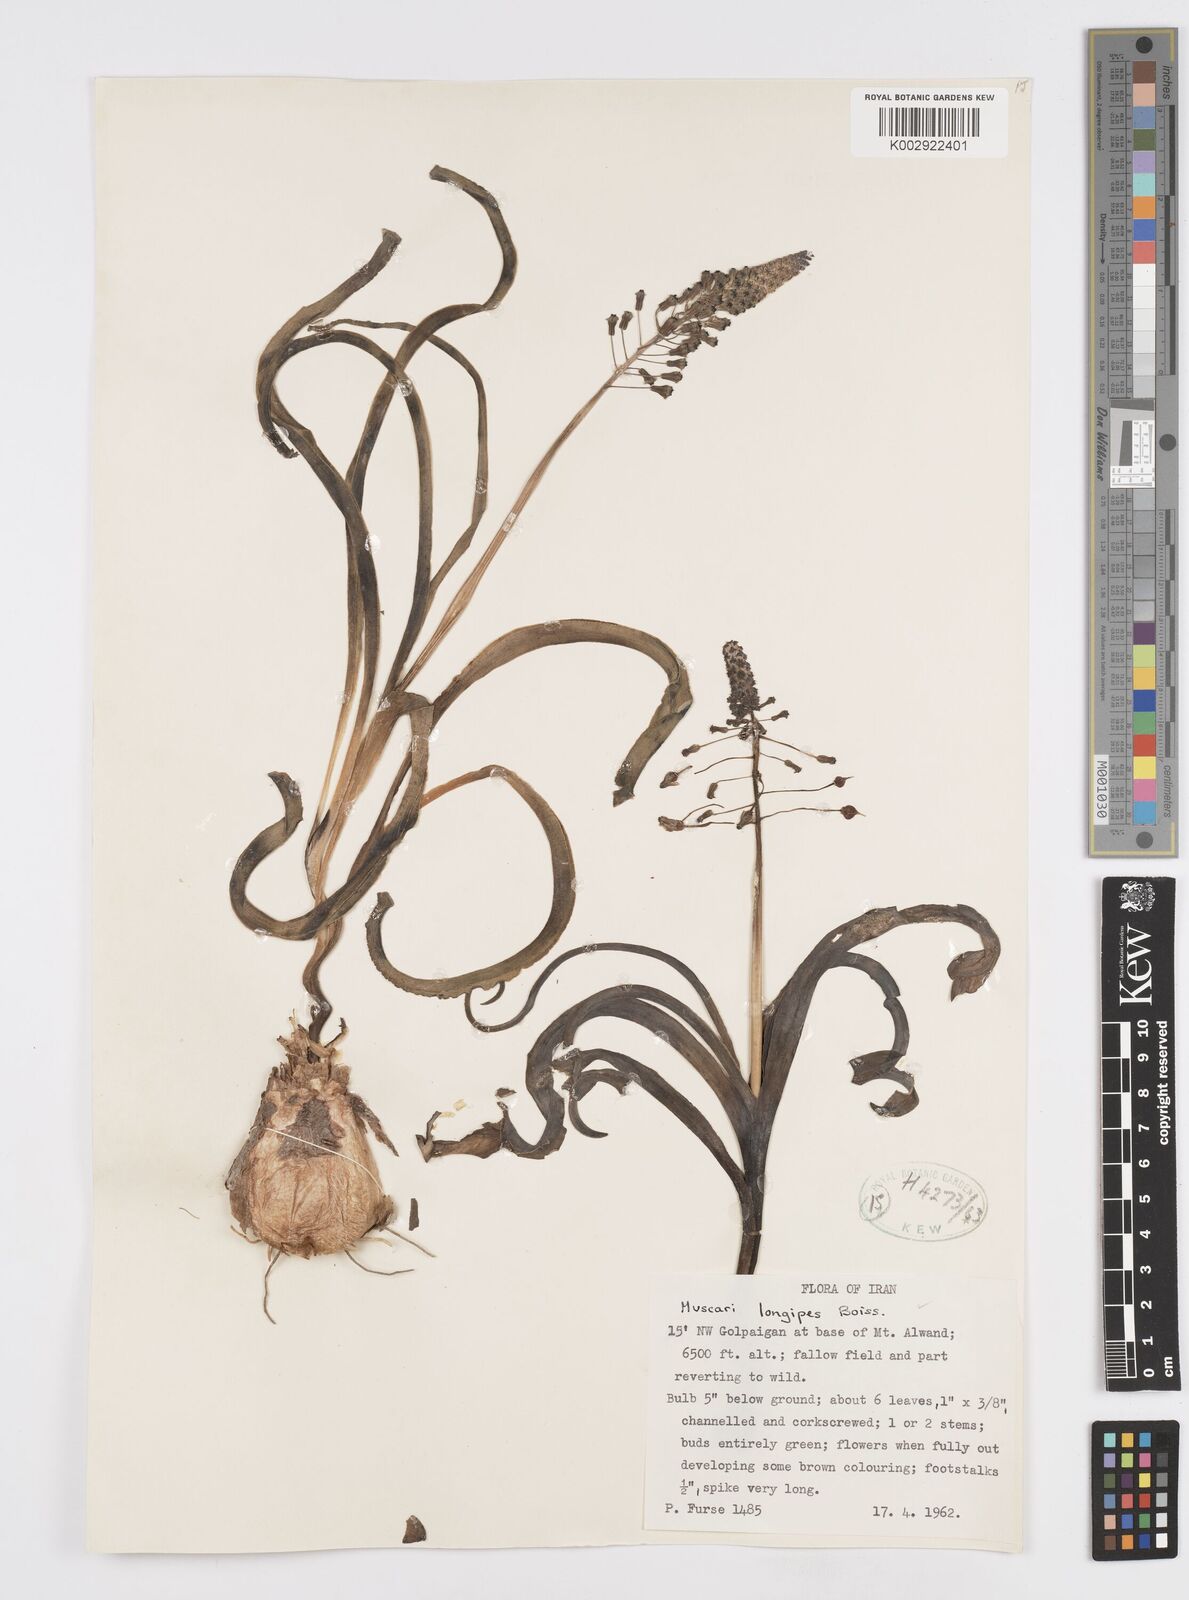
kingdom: Plantae
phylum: Tracheophyta
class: Liliopsida
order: Asparagales
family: Asparagaceae
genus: Muscari
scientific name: Muscari longipes
